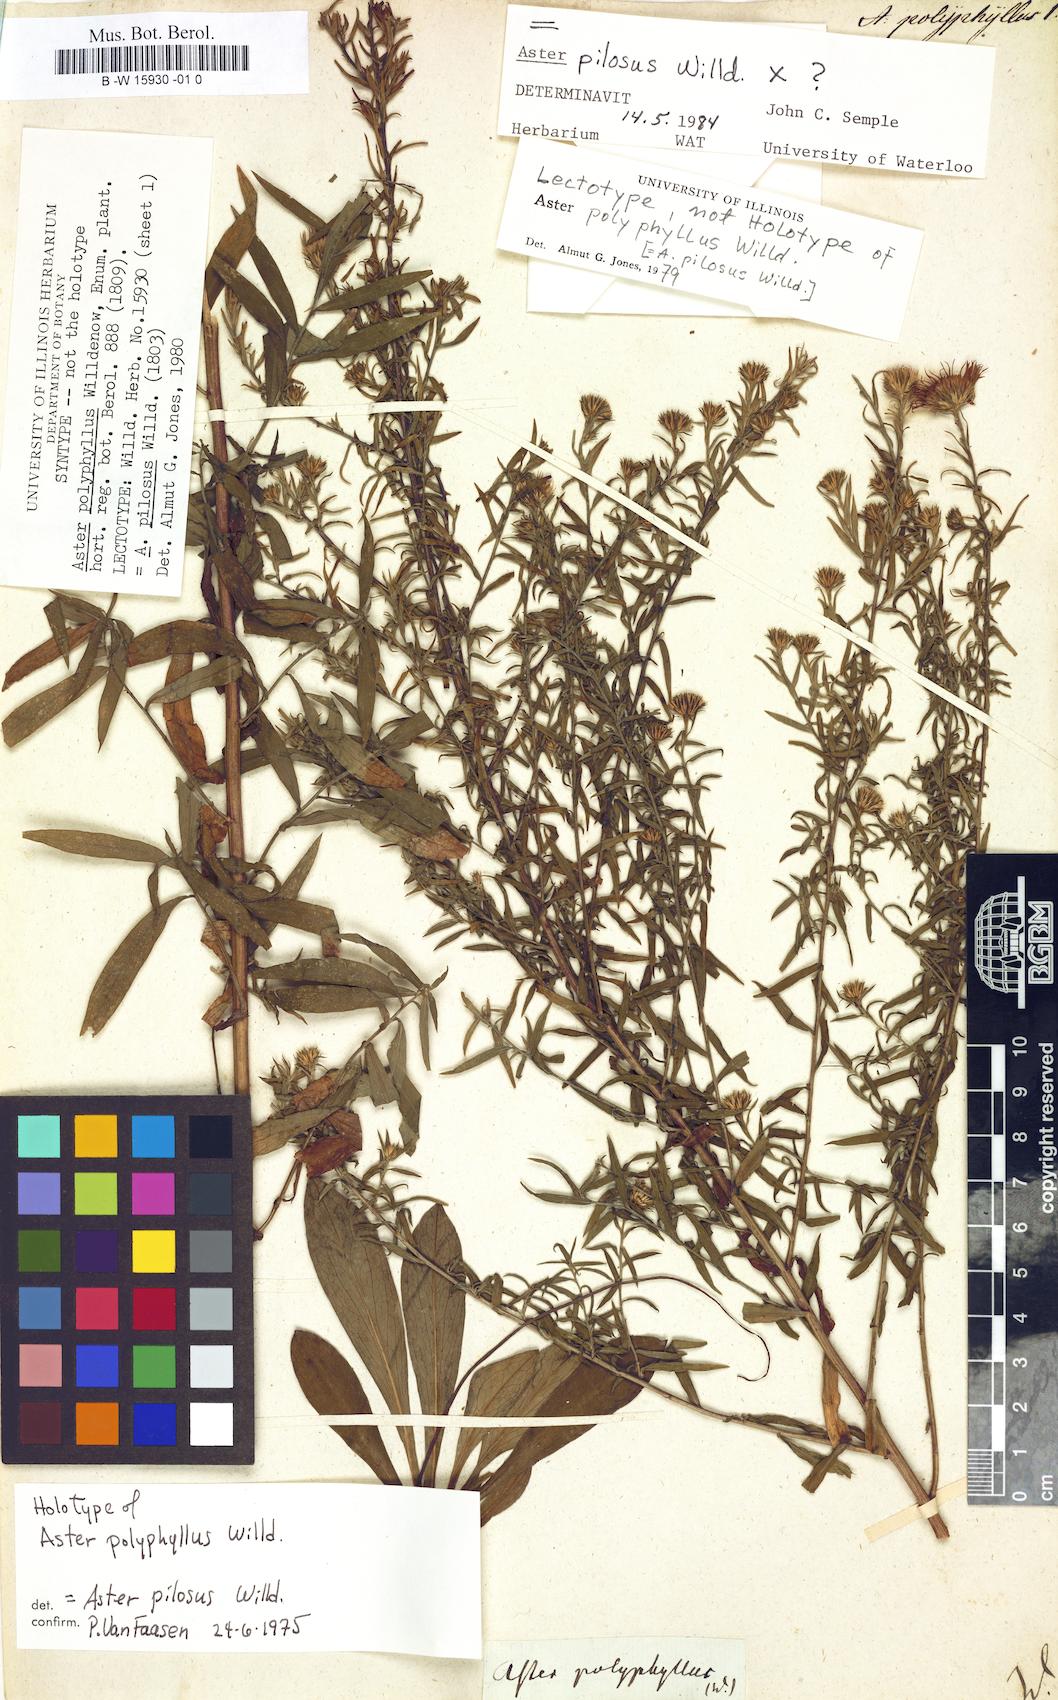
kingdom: Plantae
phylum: Tracheophyta
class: Magnoliopsida
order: Asterales
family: Asteraceae
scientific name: Asteraceae
